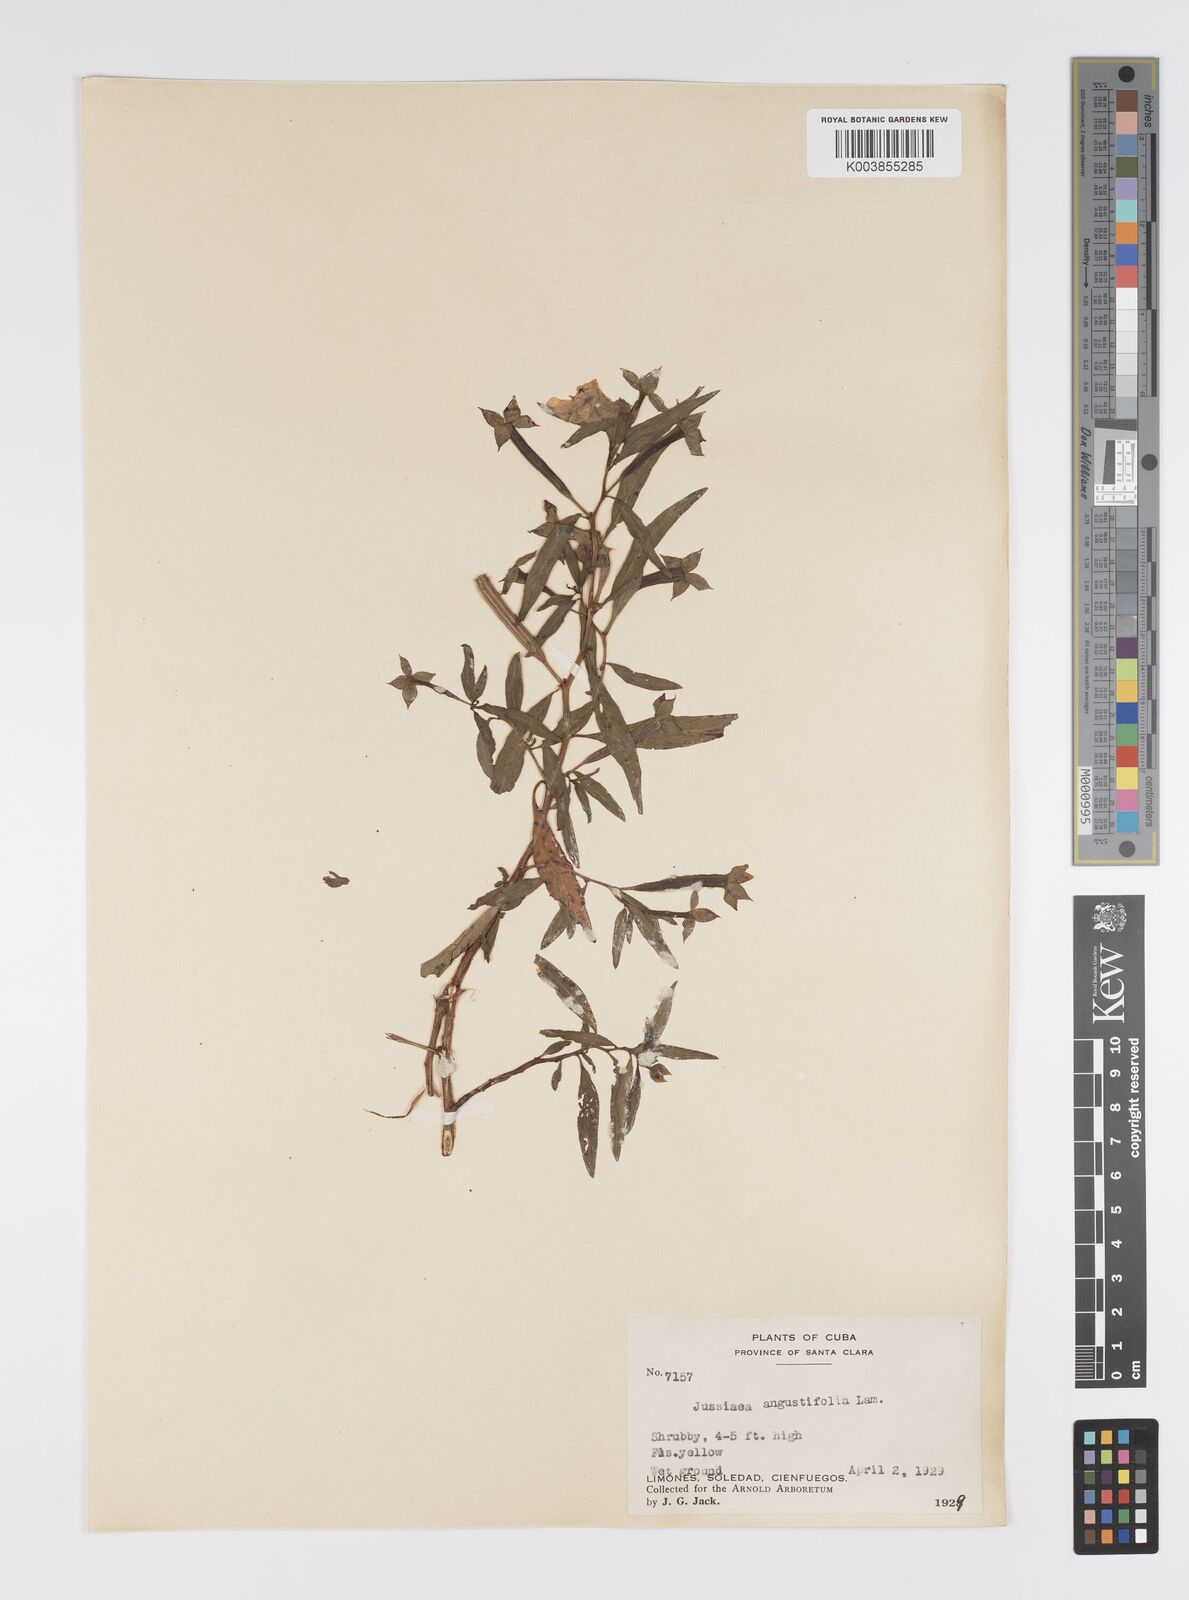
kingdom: Plantae
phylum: Tracheophyta
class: Magnoliopsida
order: Myrtales
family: Onagraceae
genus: Ludwigia
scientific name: Ludwigia octovalvis
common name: Water-primrose
